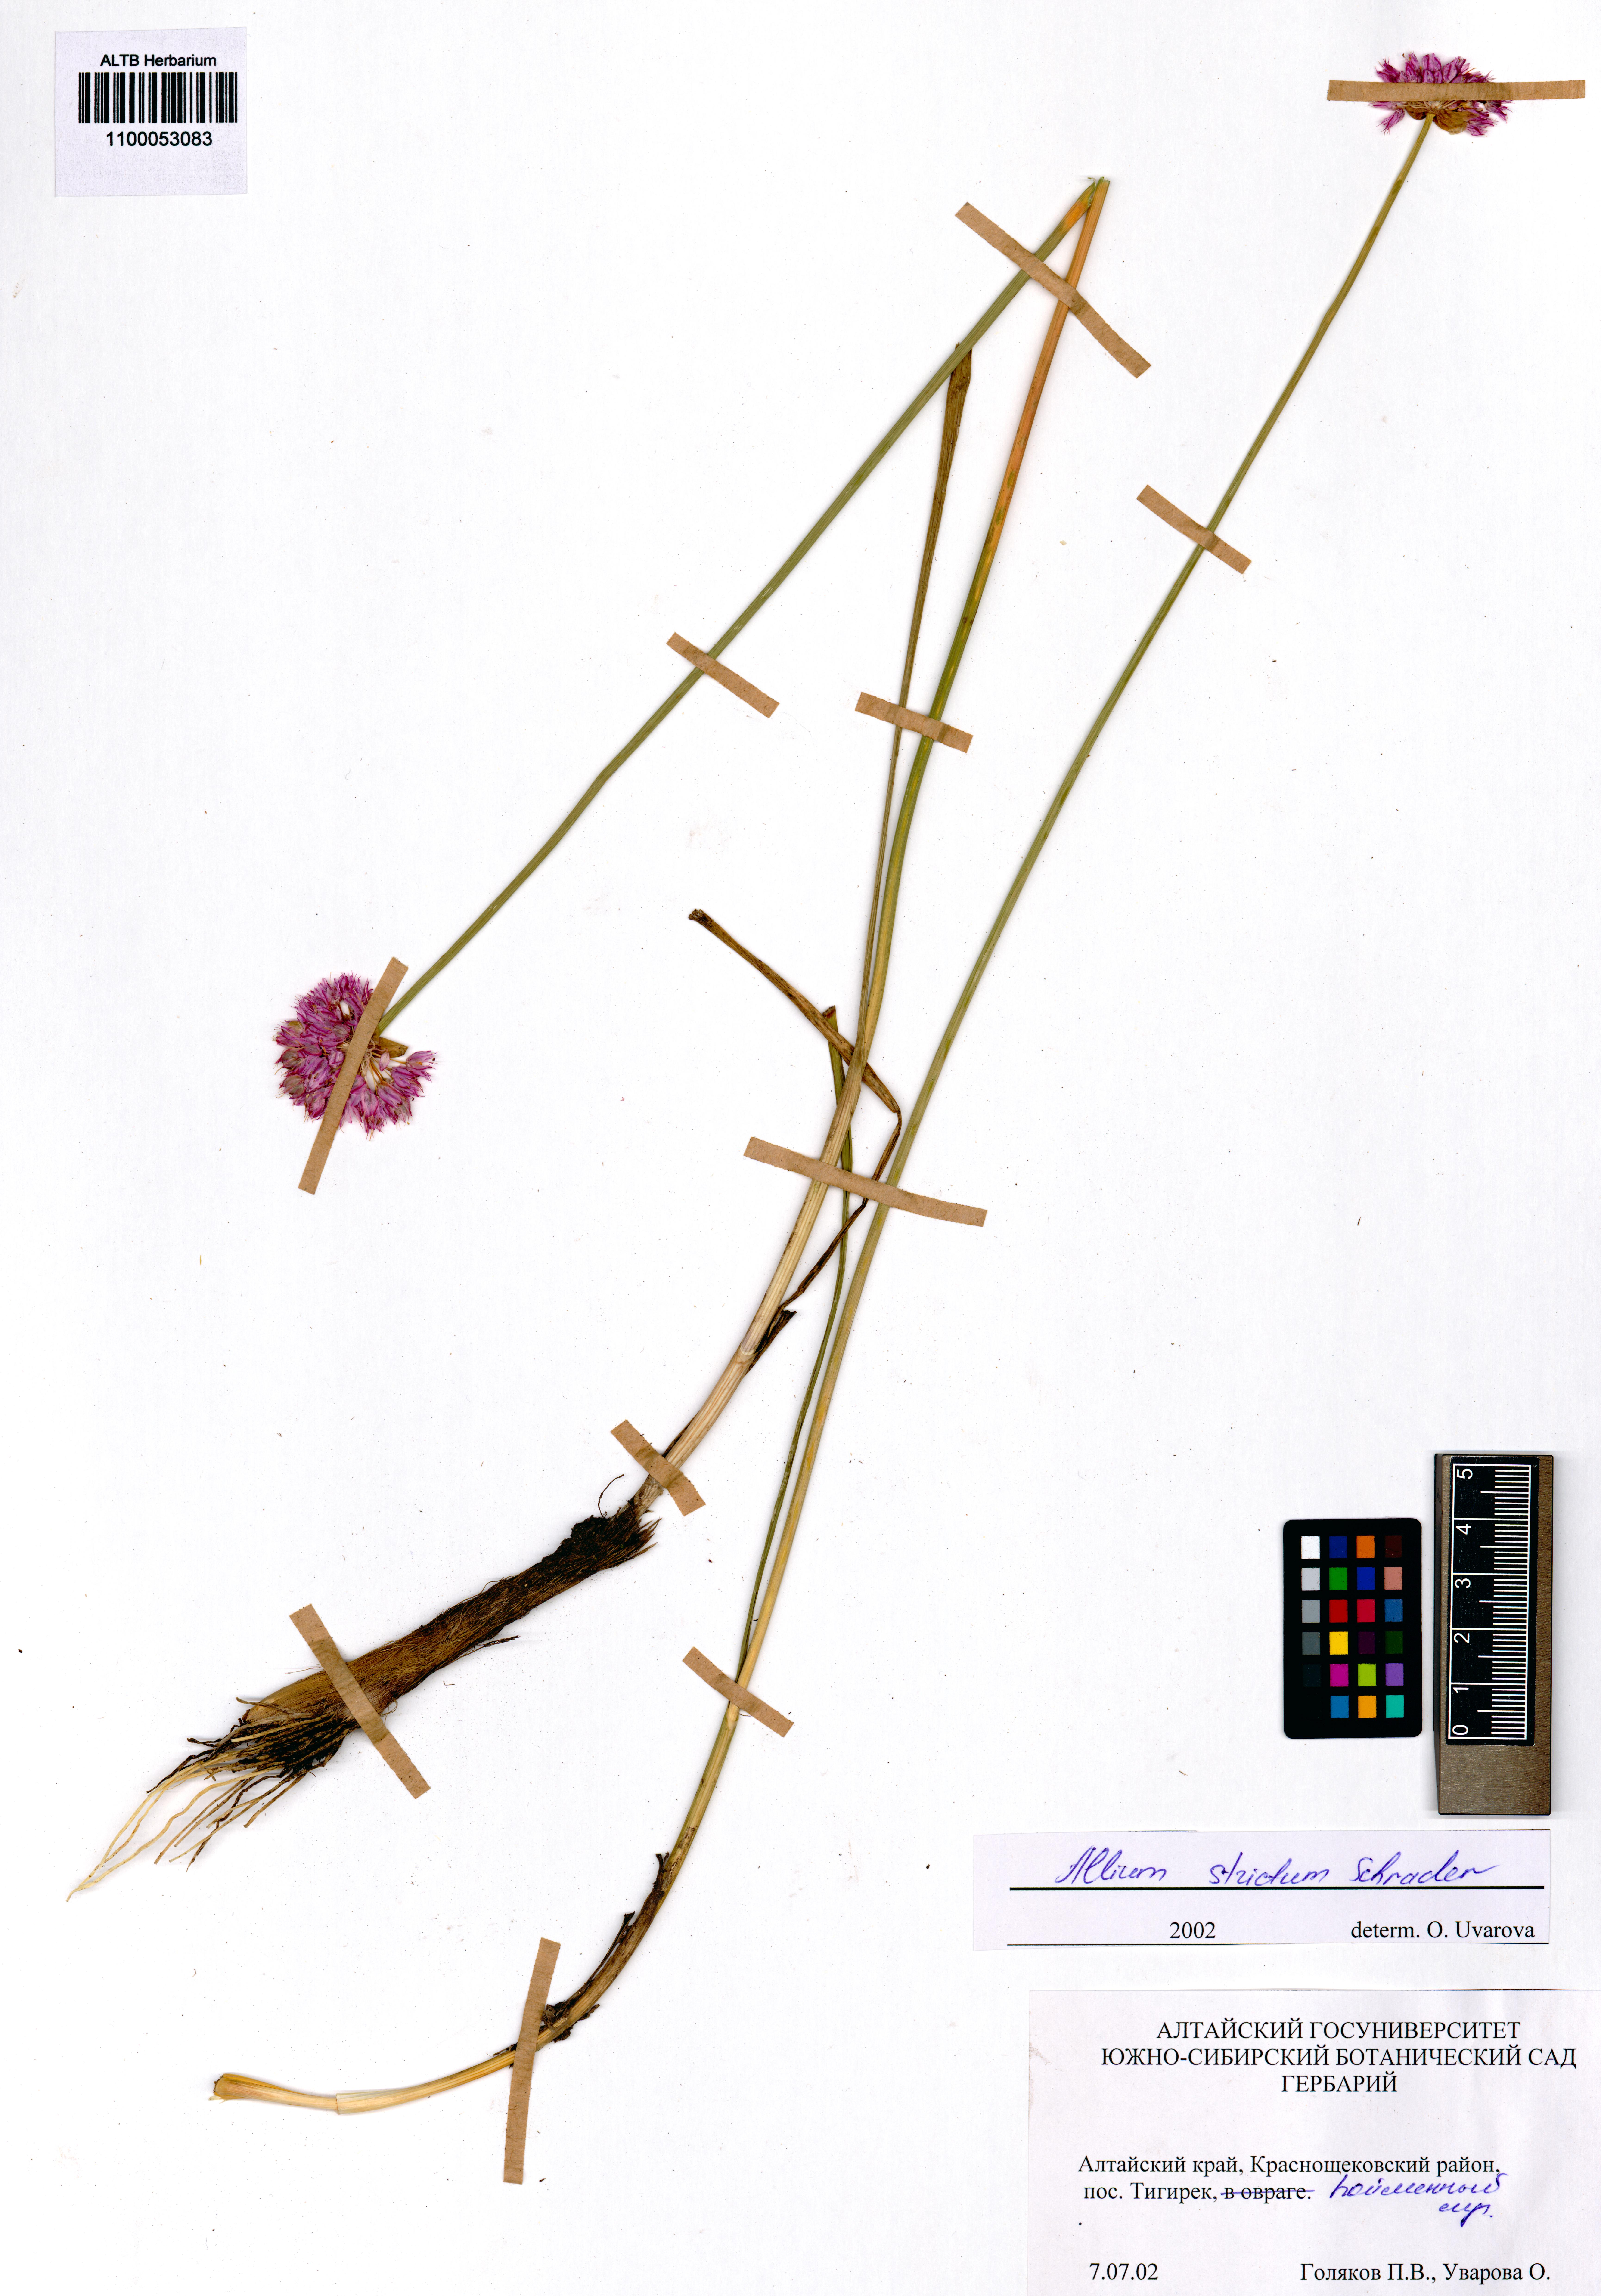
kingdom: Plantae
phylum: Tracheophyta
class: Liliopsida
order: Asparagales
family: Amaryllidaceae
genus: Allium
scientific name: Allium strictum
